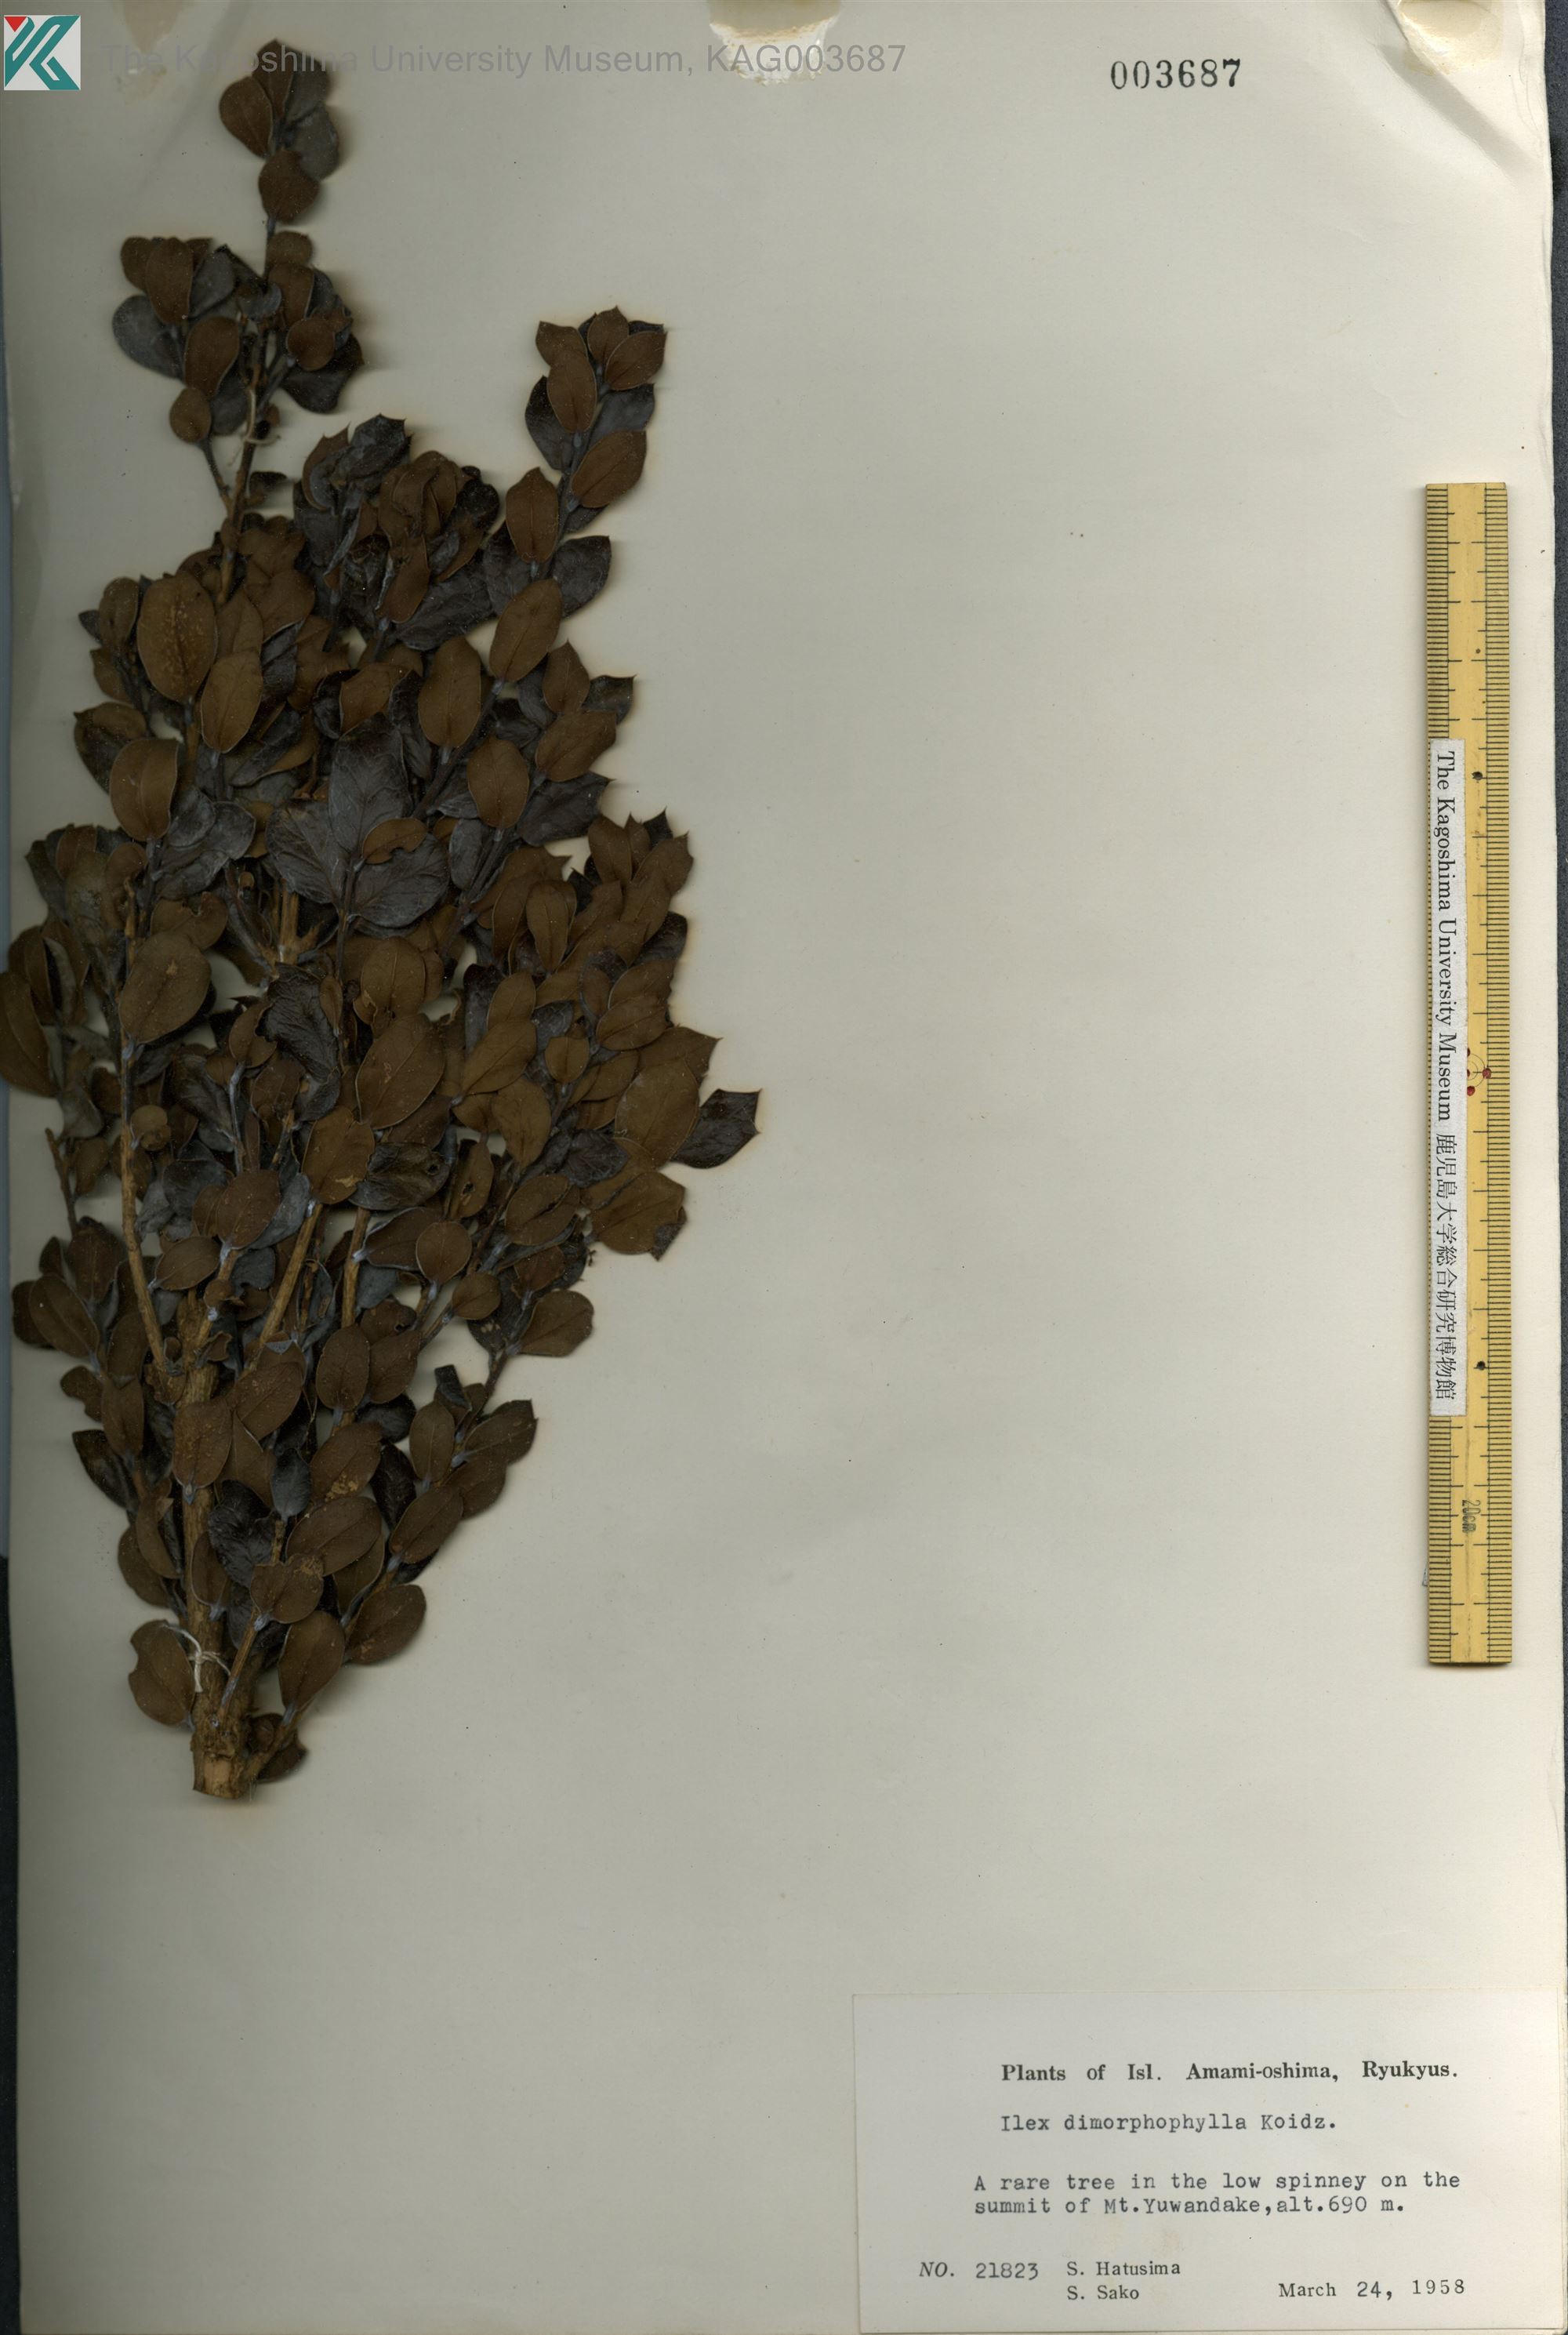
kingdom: Plantae
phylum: Tracheophyta
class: Magnoliopsida
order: Aquifoliales
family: Aquifoliaceae
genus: Ilex
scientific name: Ilex
